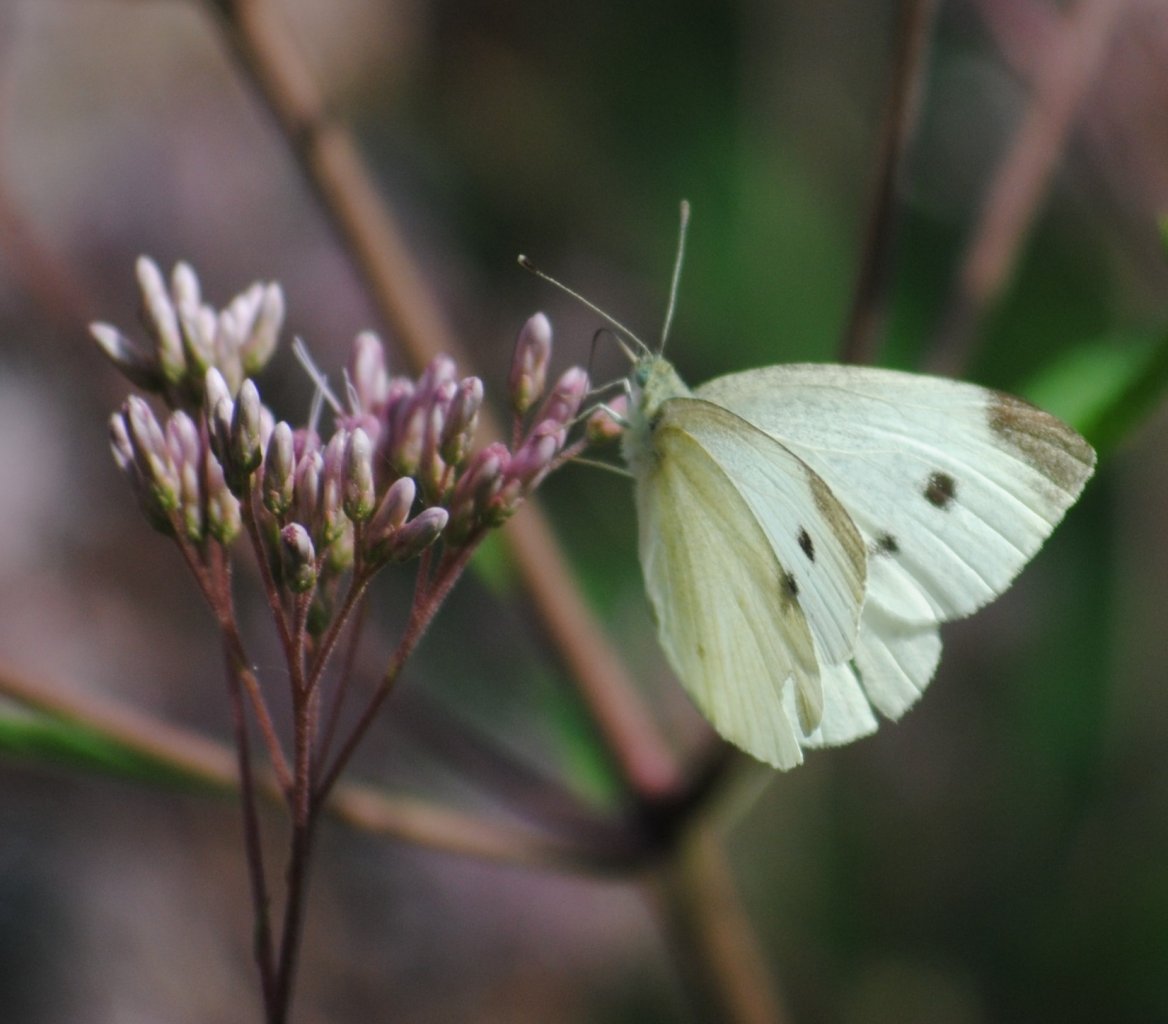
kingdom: Animalia
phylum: Arthropoda
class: Insecta
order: Lepidoptera
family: Pieridae
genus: Pieris
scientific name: Pieris rapae
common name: Cabbage White
